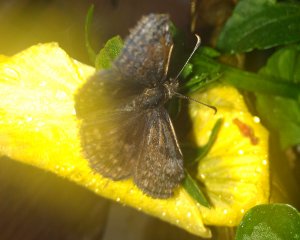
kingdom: Animalia
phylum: Arthropoda
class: Insecta
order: Lepidoptera
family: Hesperiidae
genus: Erynnis
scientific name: Erynnis icelus
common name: Dreamy Duskywing
